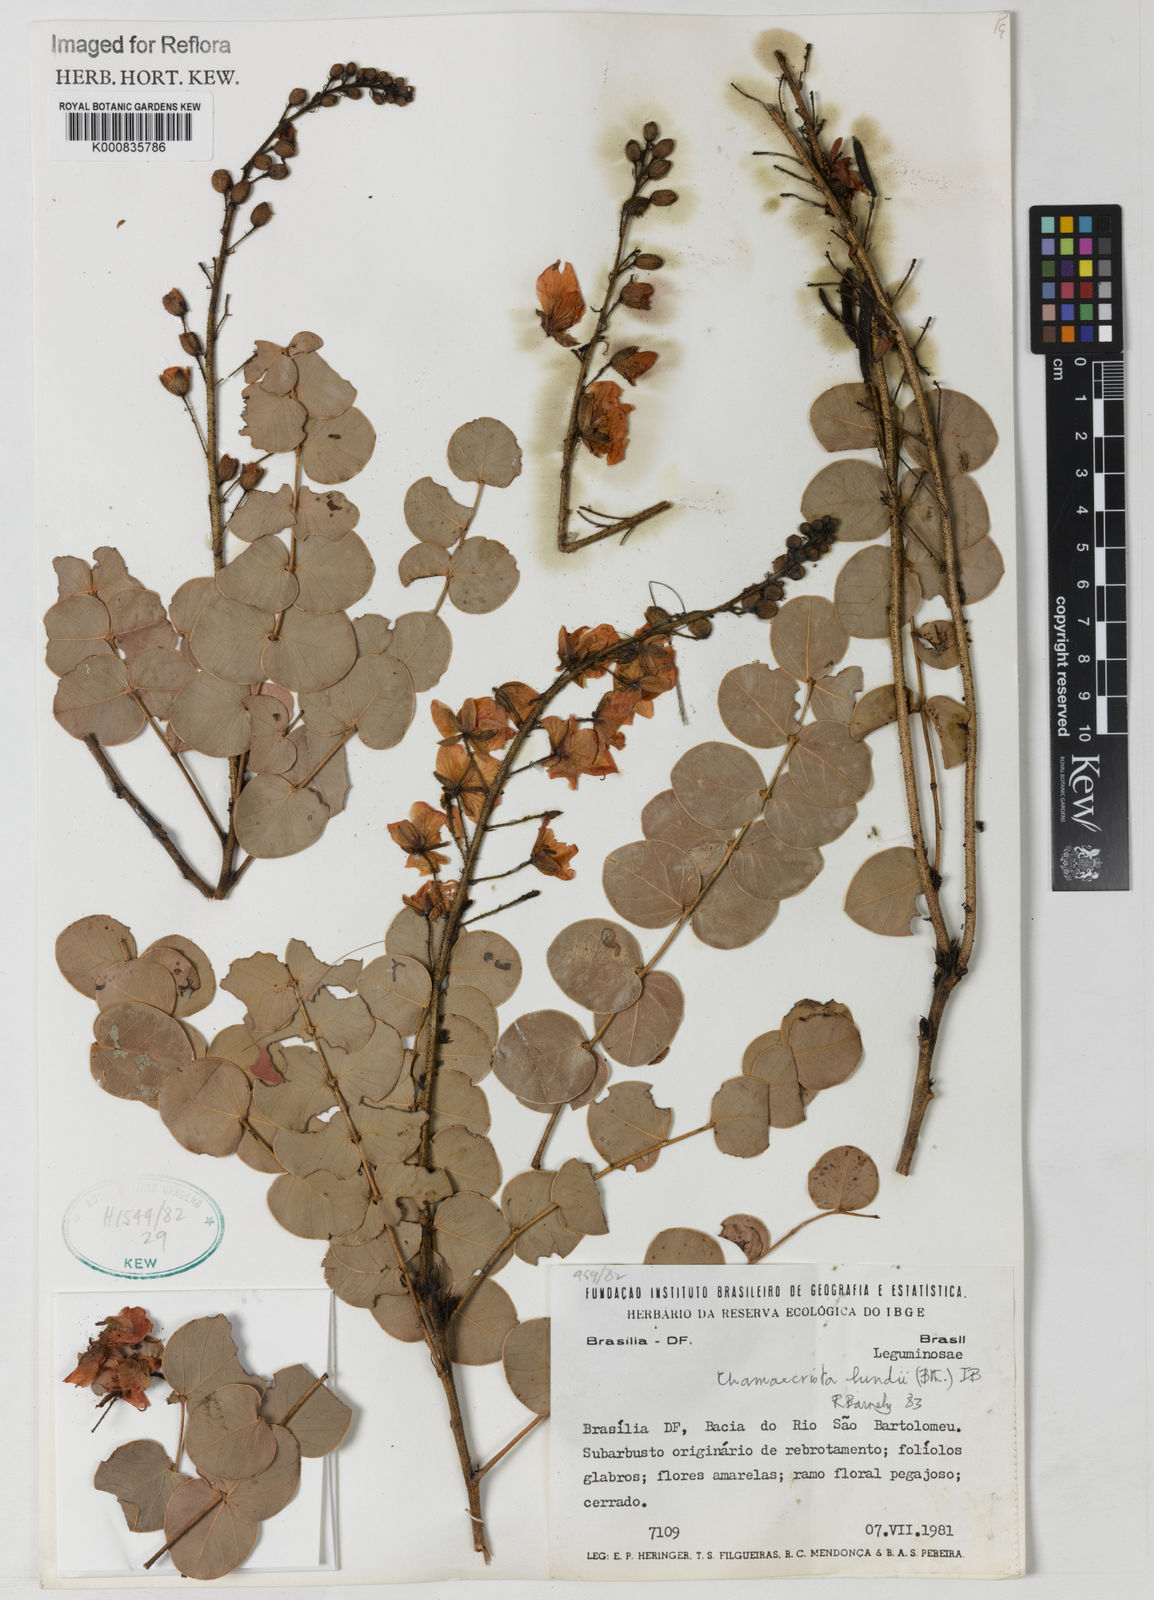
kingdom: Plantae
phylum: Tracheophyta
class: Magnoliopsida
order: Fabales
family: Fabaceae
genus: Chamaecrista
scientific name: Chamaecrista lundii
